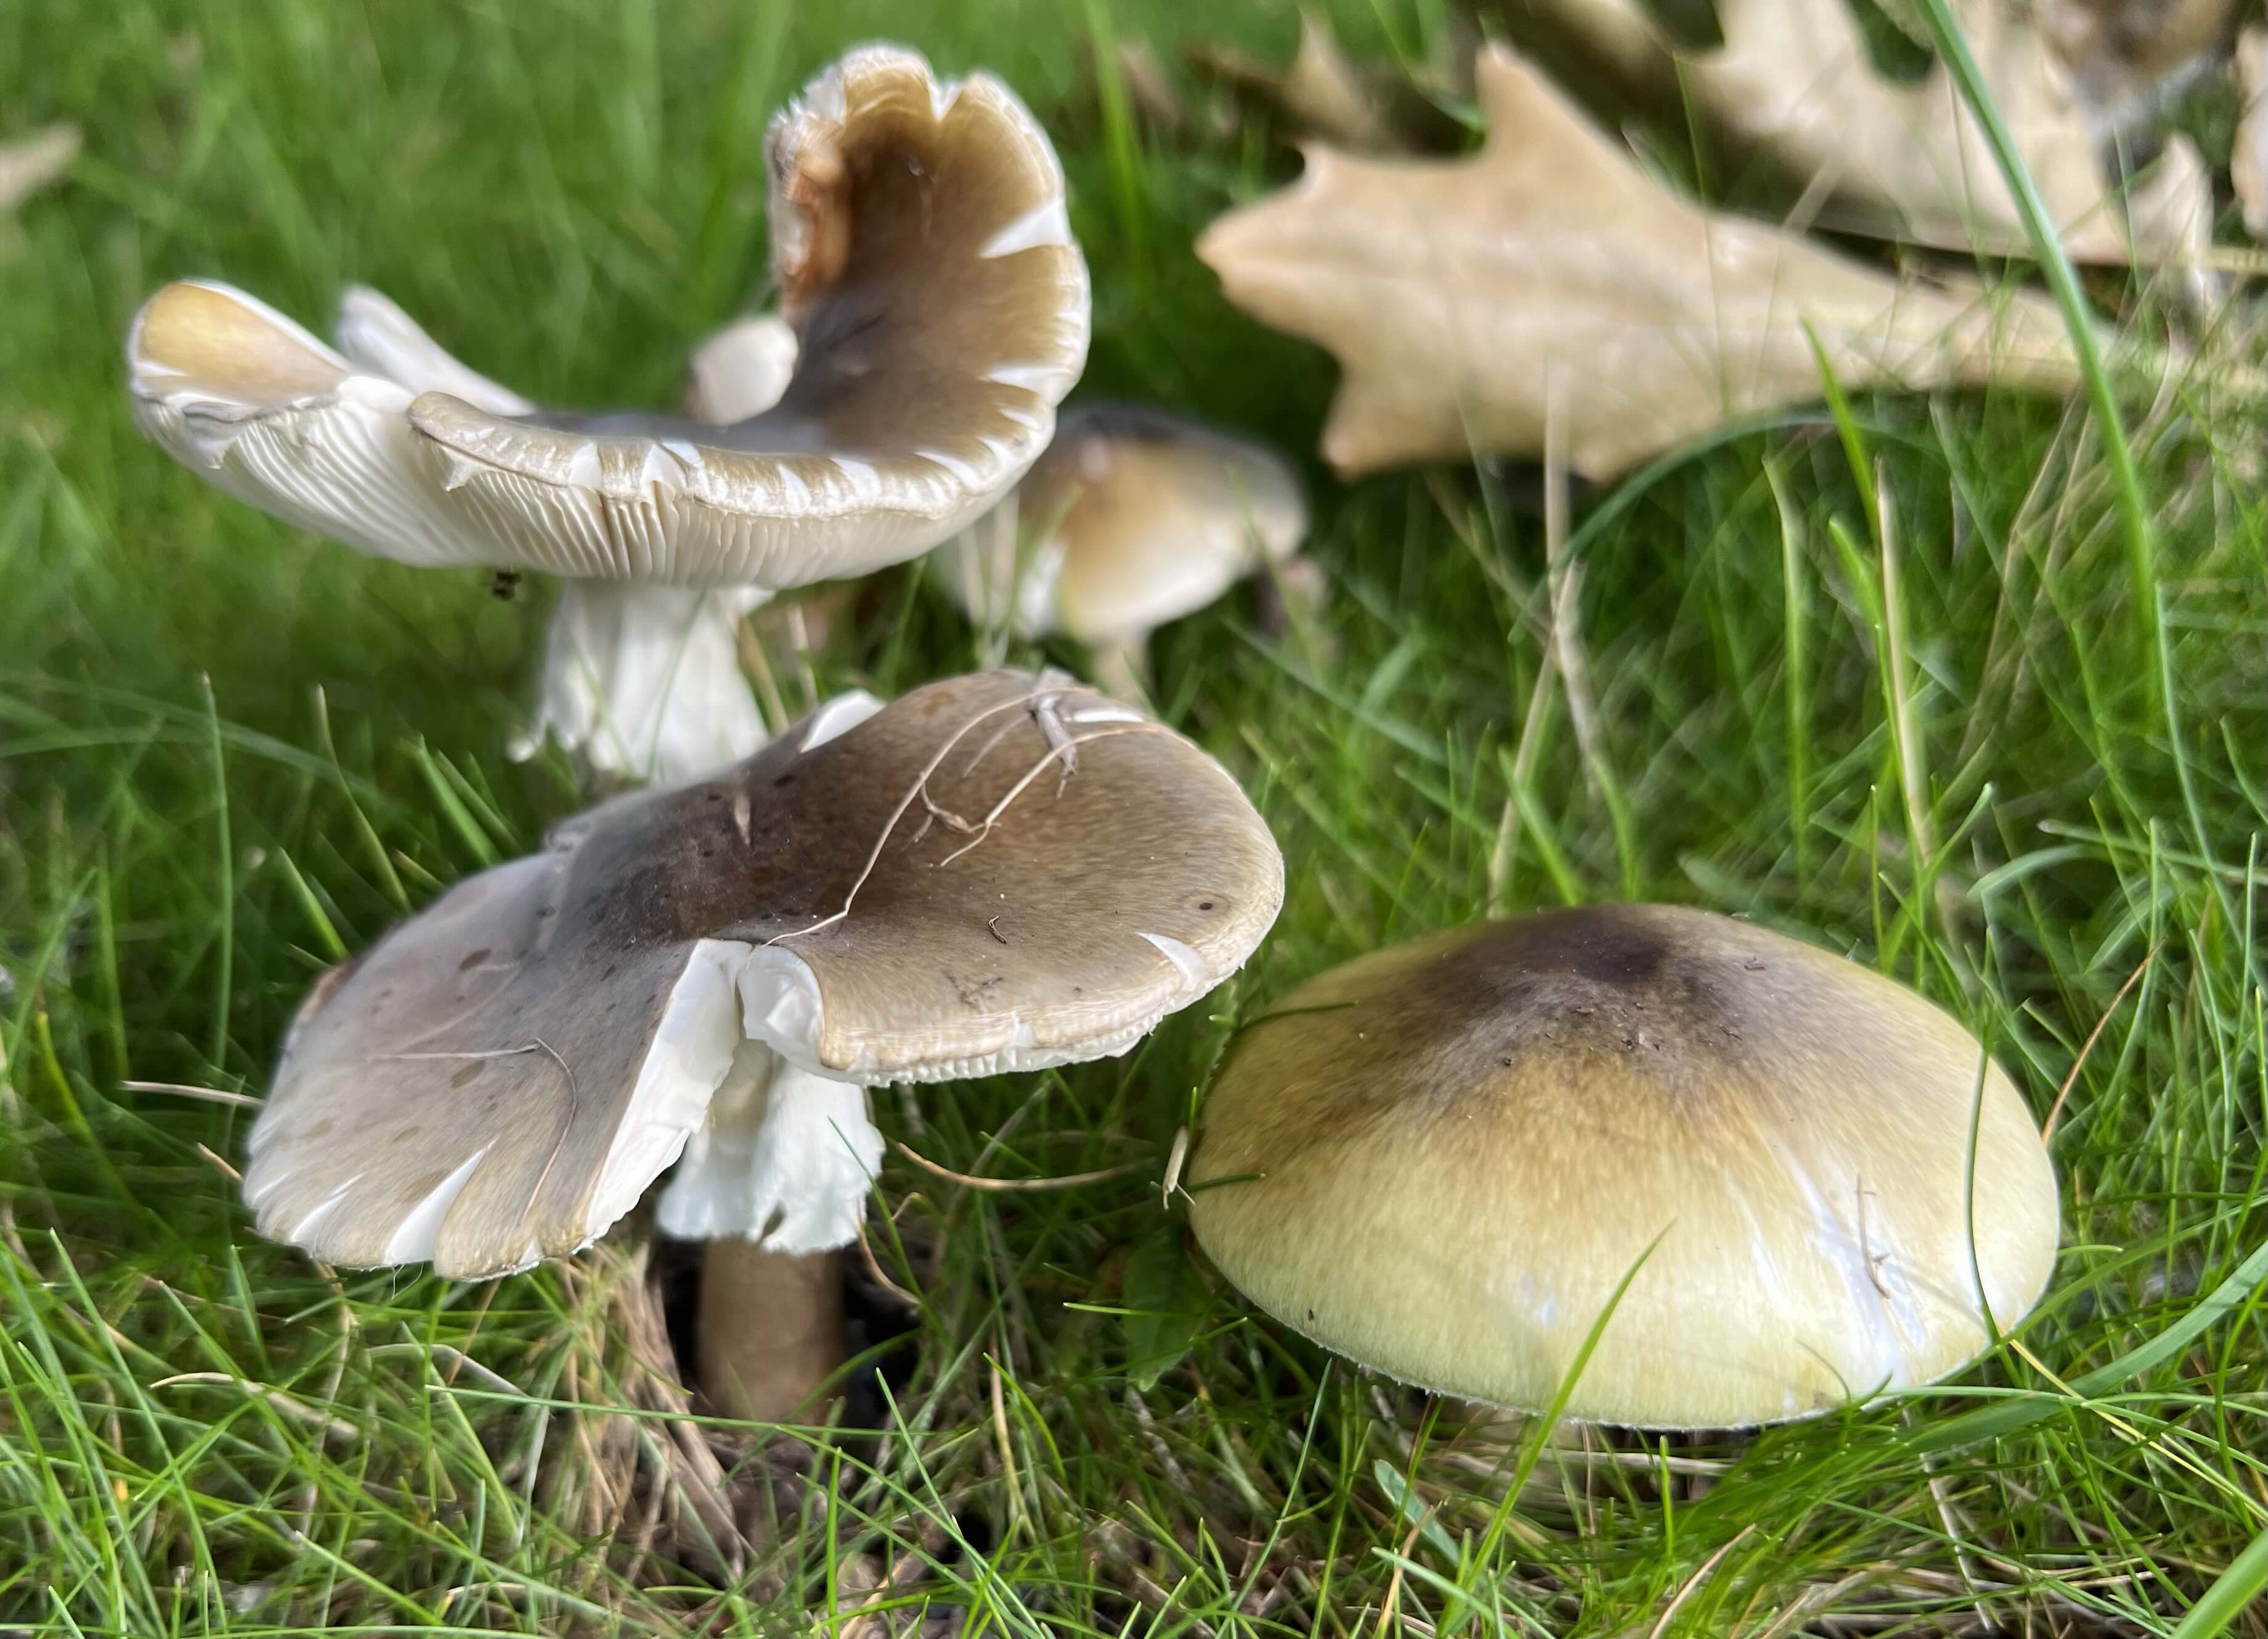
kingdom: Fungi
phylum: Basidiomycota
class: Agaricomycetes
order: Agaricales
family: Amanitaceae
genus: Amanita
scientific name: Amanita phalloides
